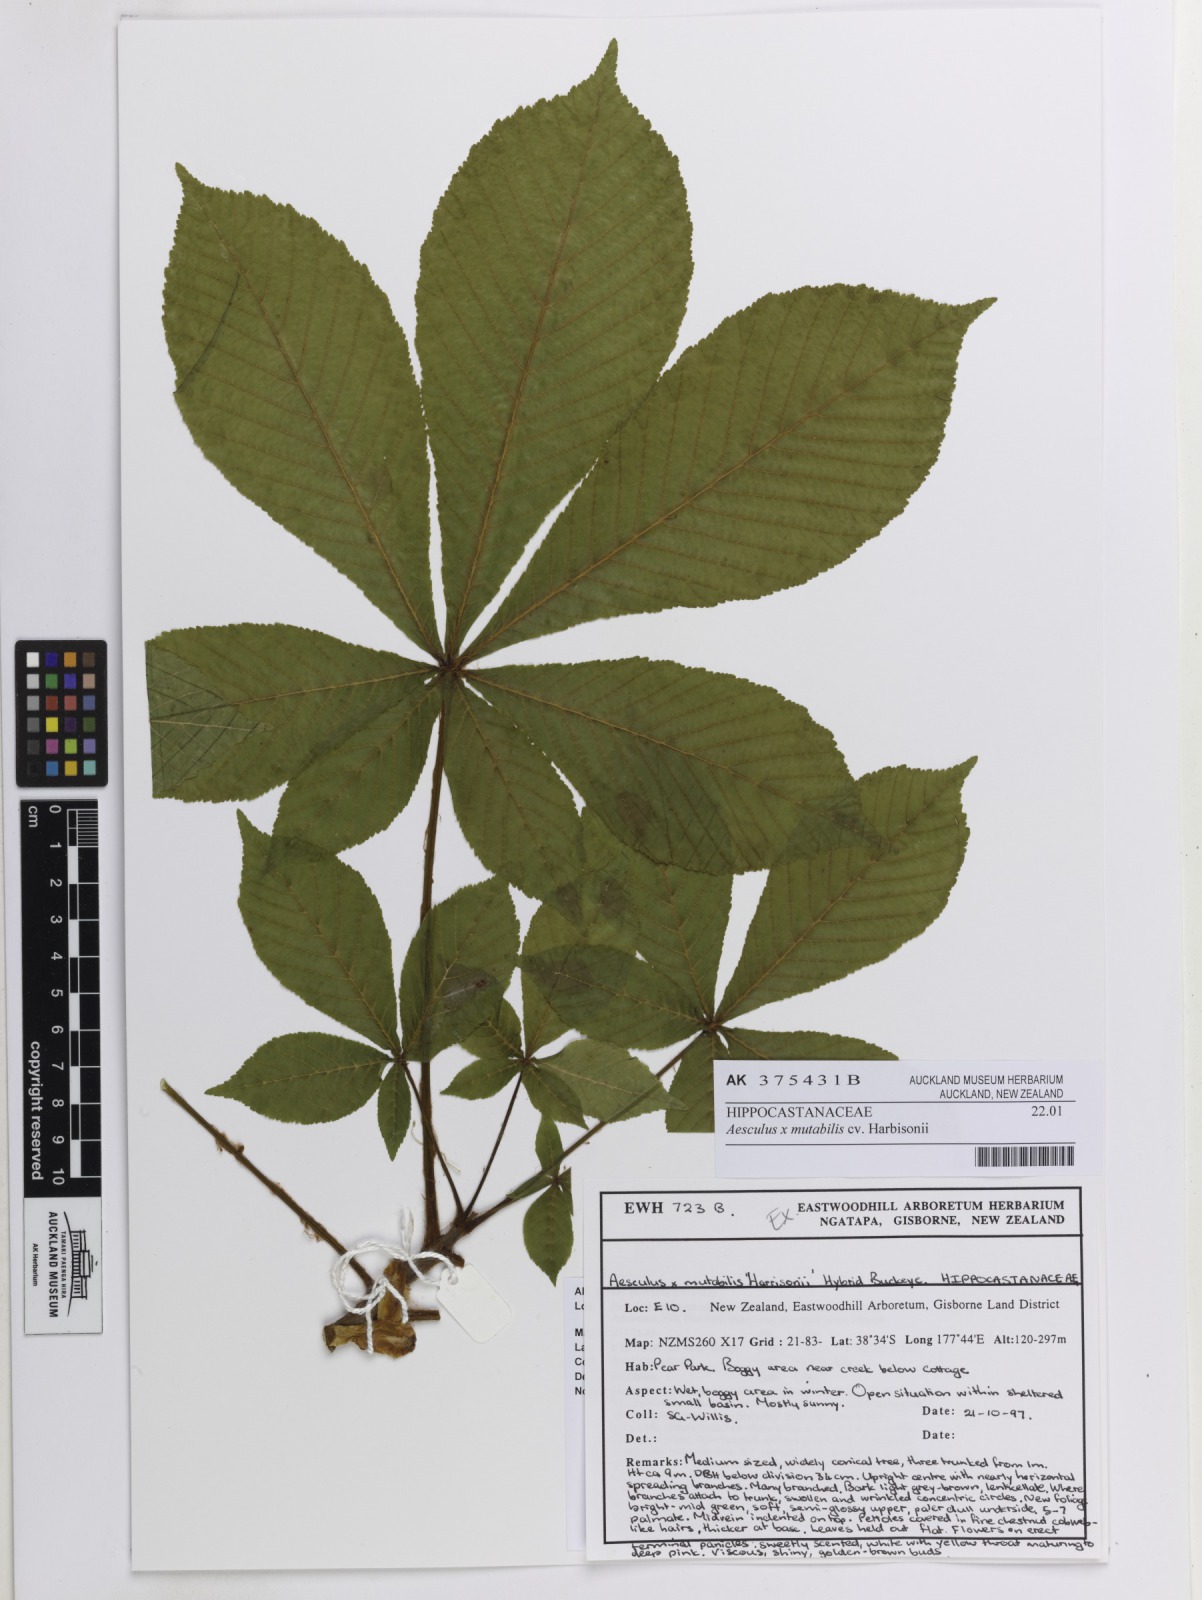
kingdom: Plantae
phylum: Tracheophyta
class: Magnoliopsida
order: Sapindales
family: Sapindaceae
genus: Aesculus
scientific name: Aesculus mutabilis
